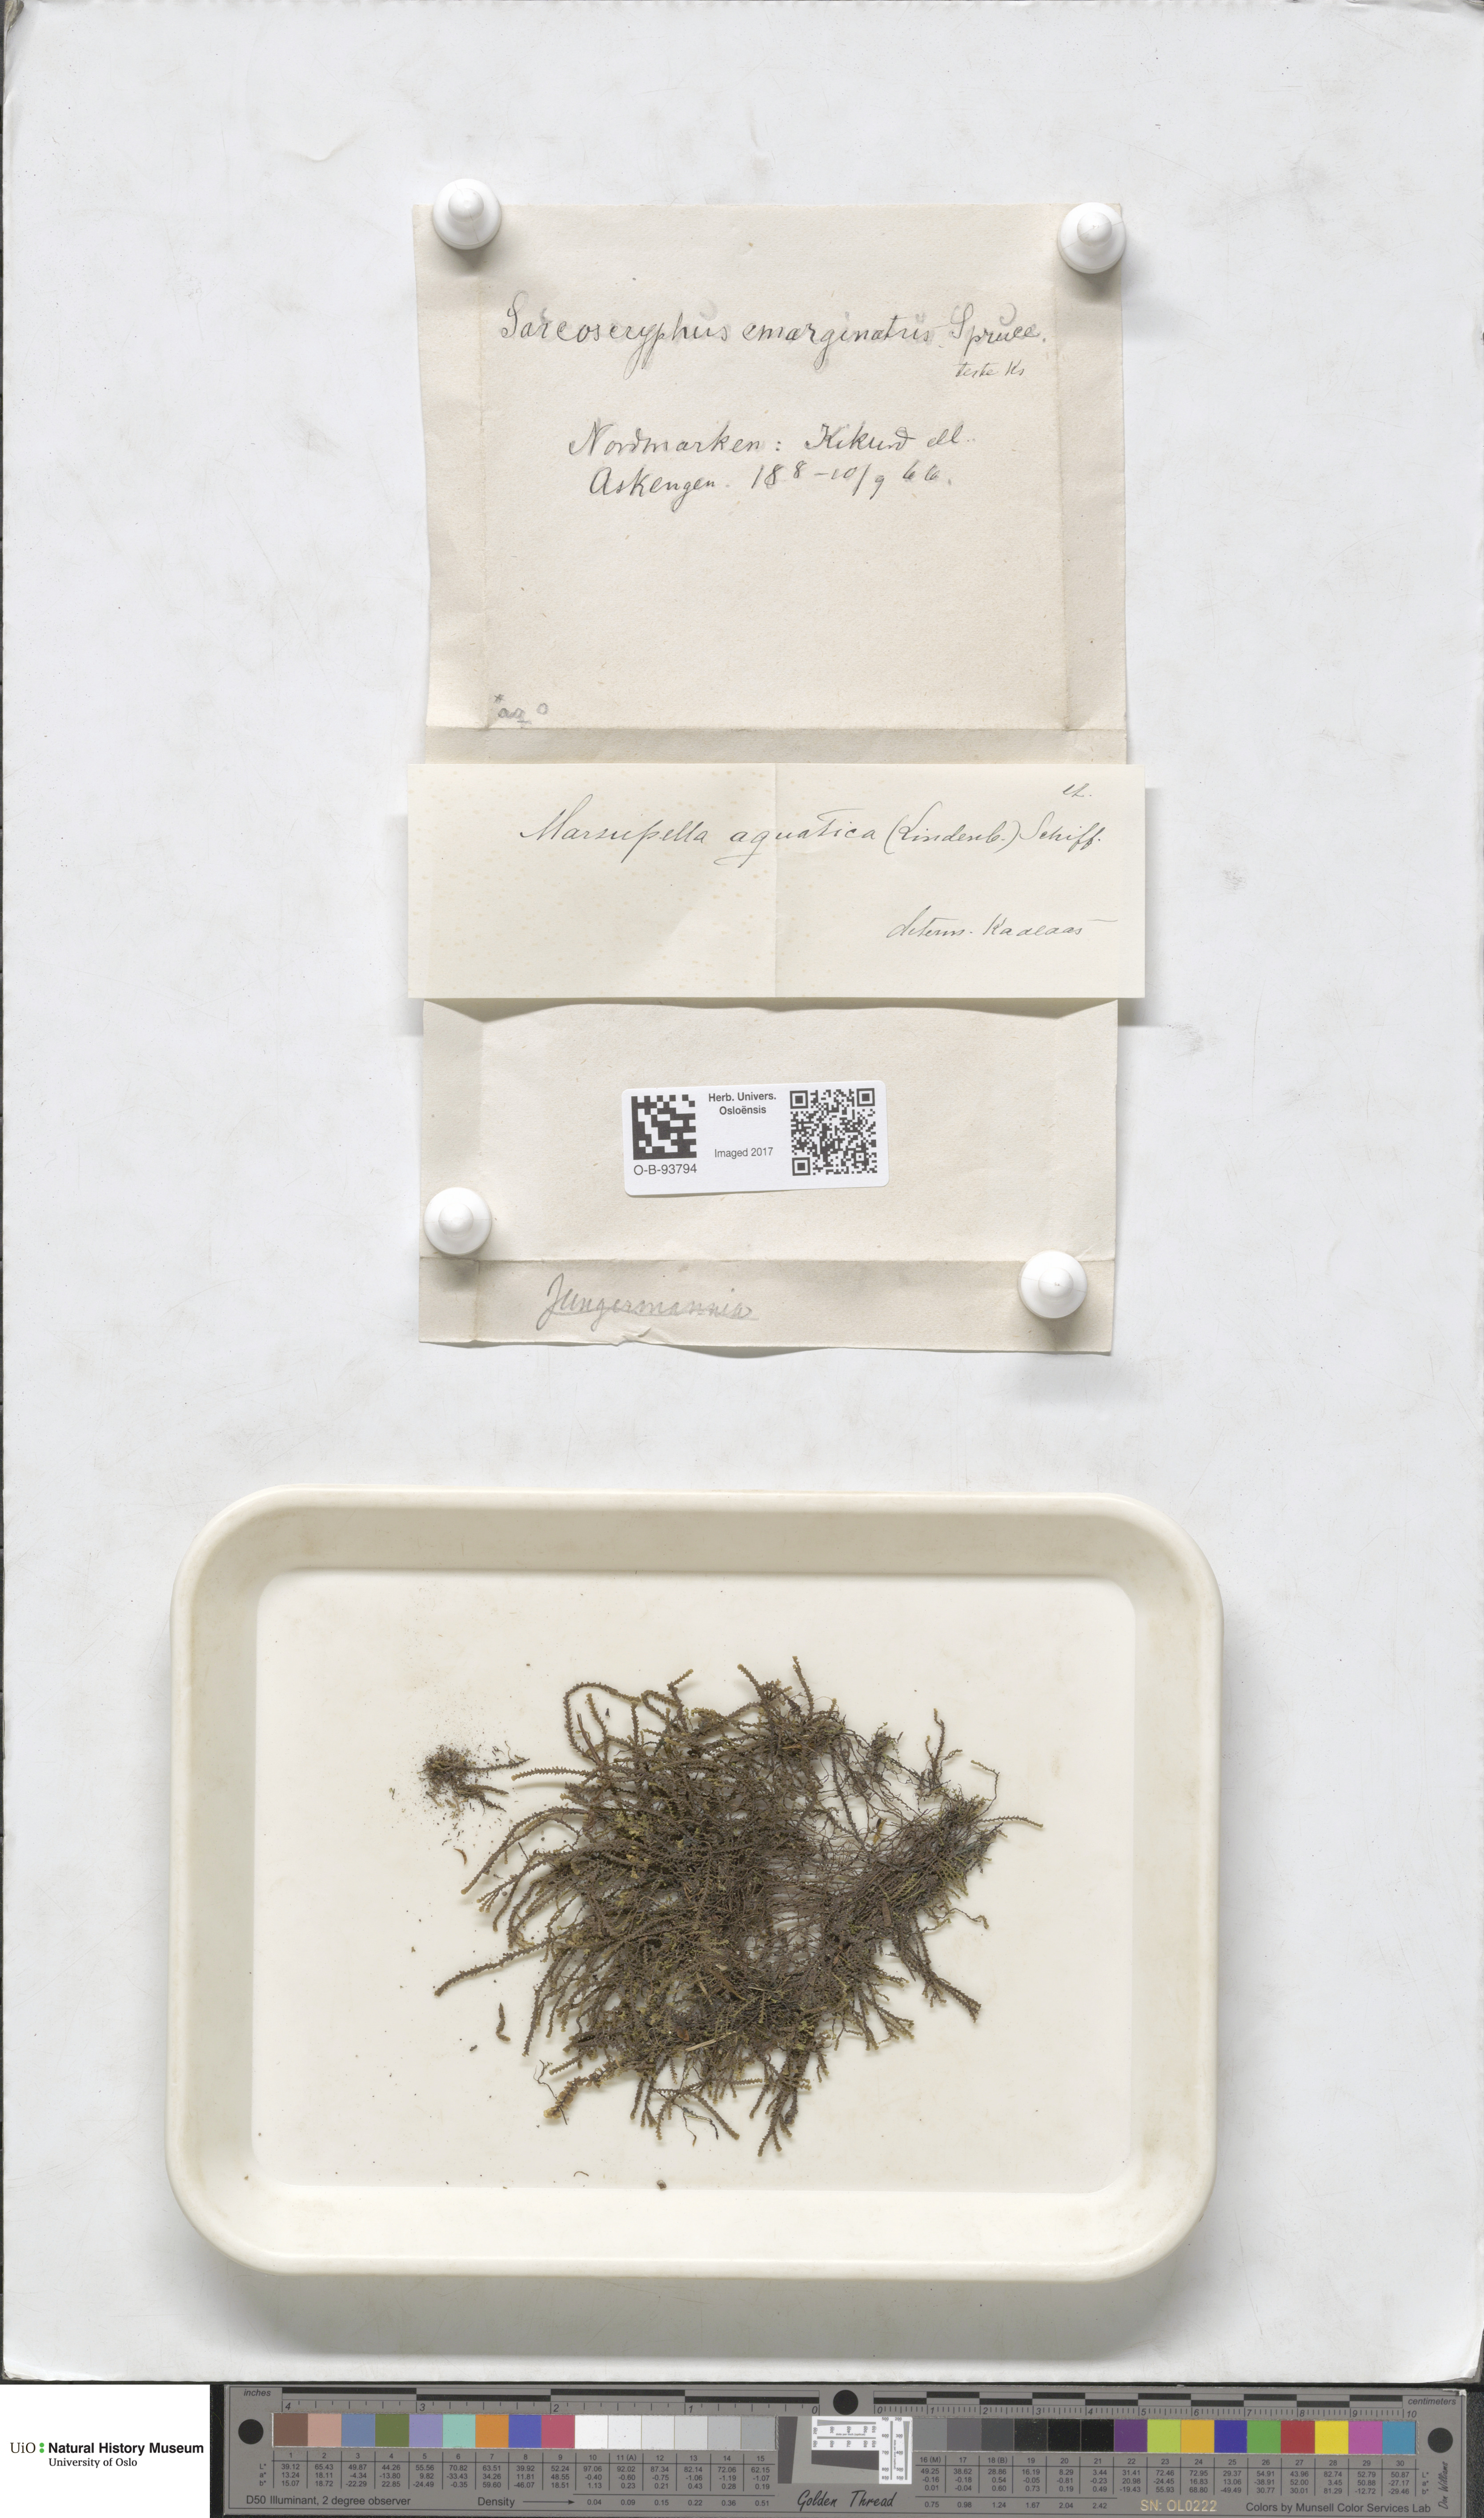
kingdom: Plantae
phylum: Marchantiophyta
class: Jungermanniopsida
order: Jungermanniales
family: Gymnomitriaceae
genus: Marsupella
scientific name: Marsupella emarginata
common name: Notched rustwort
